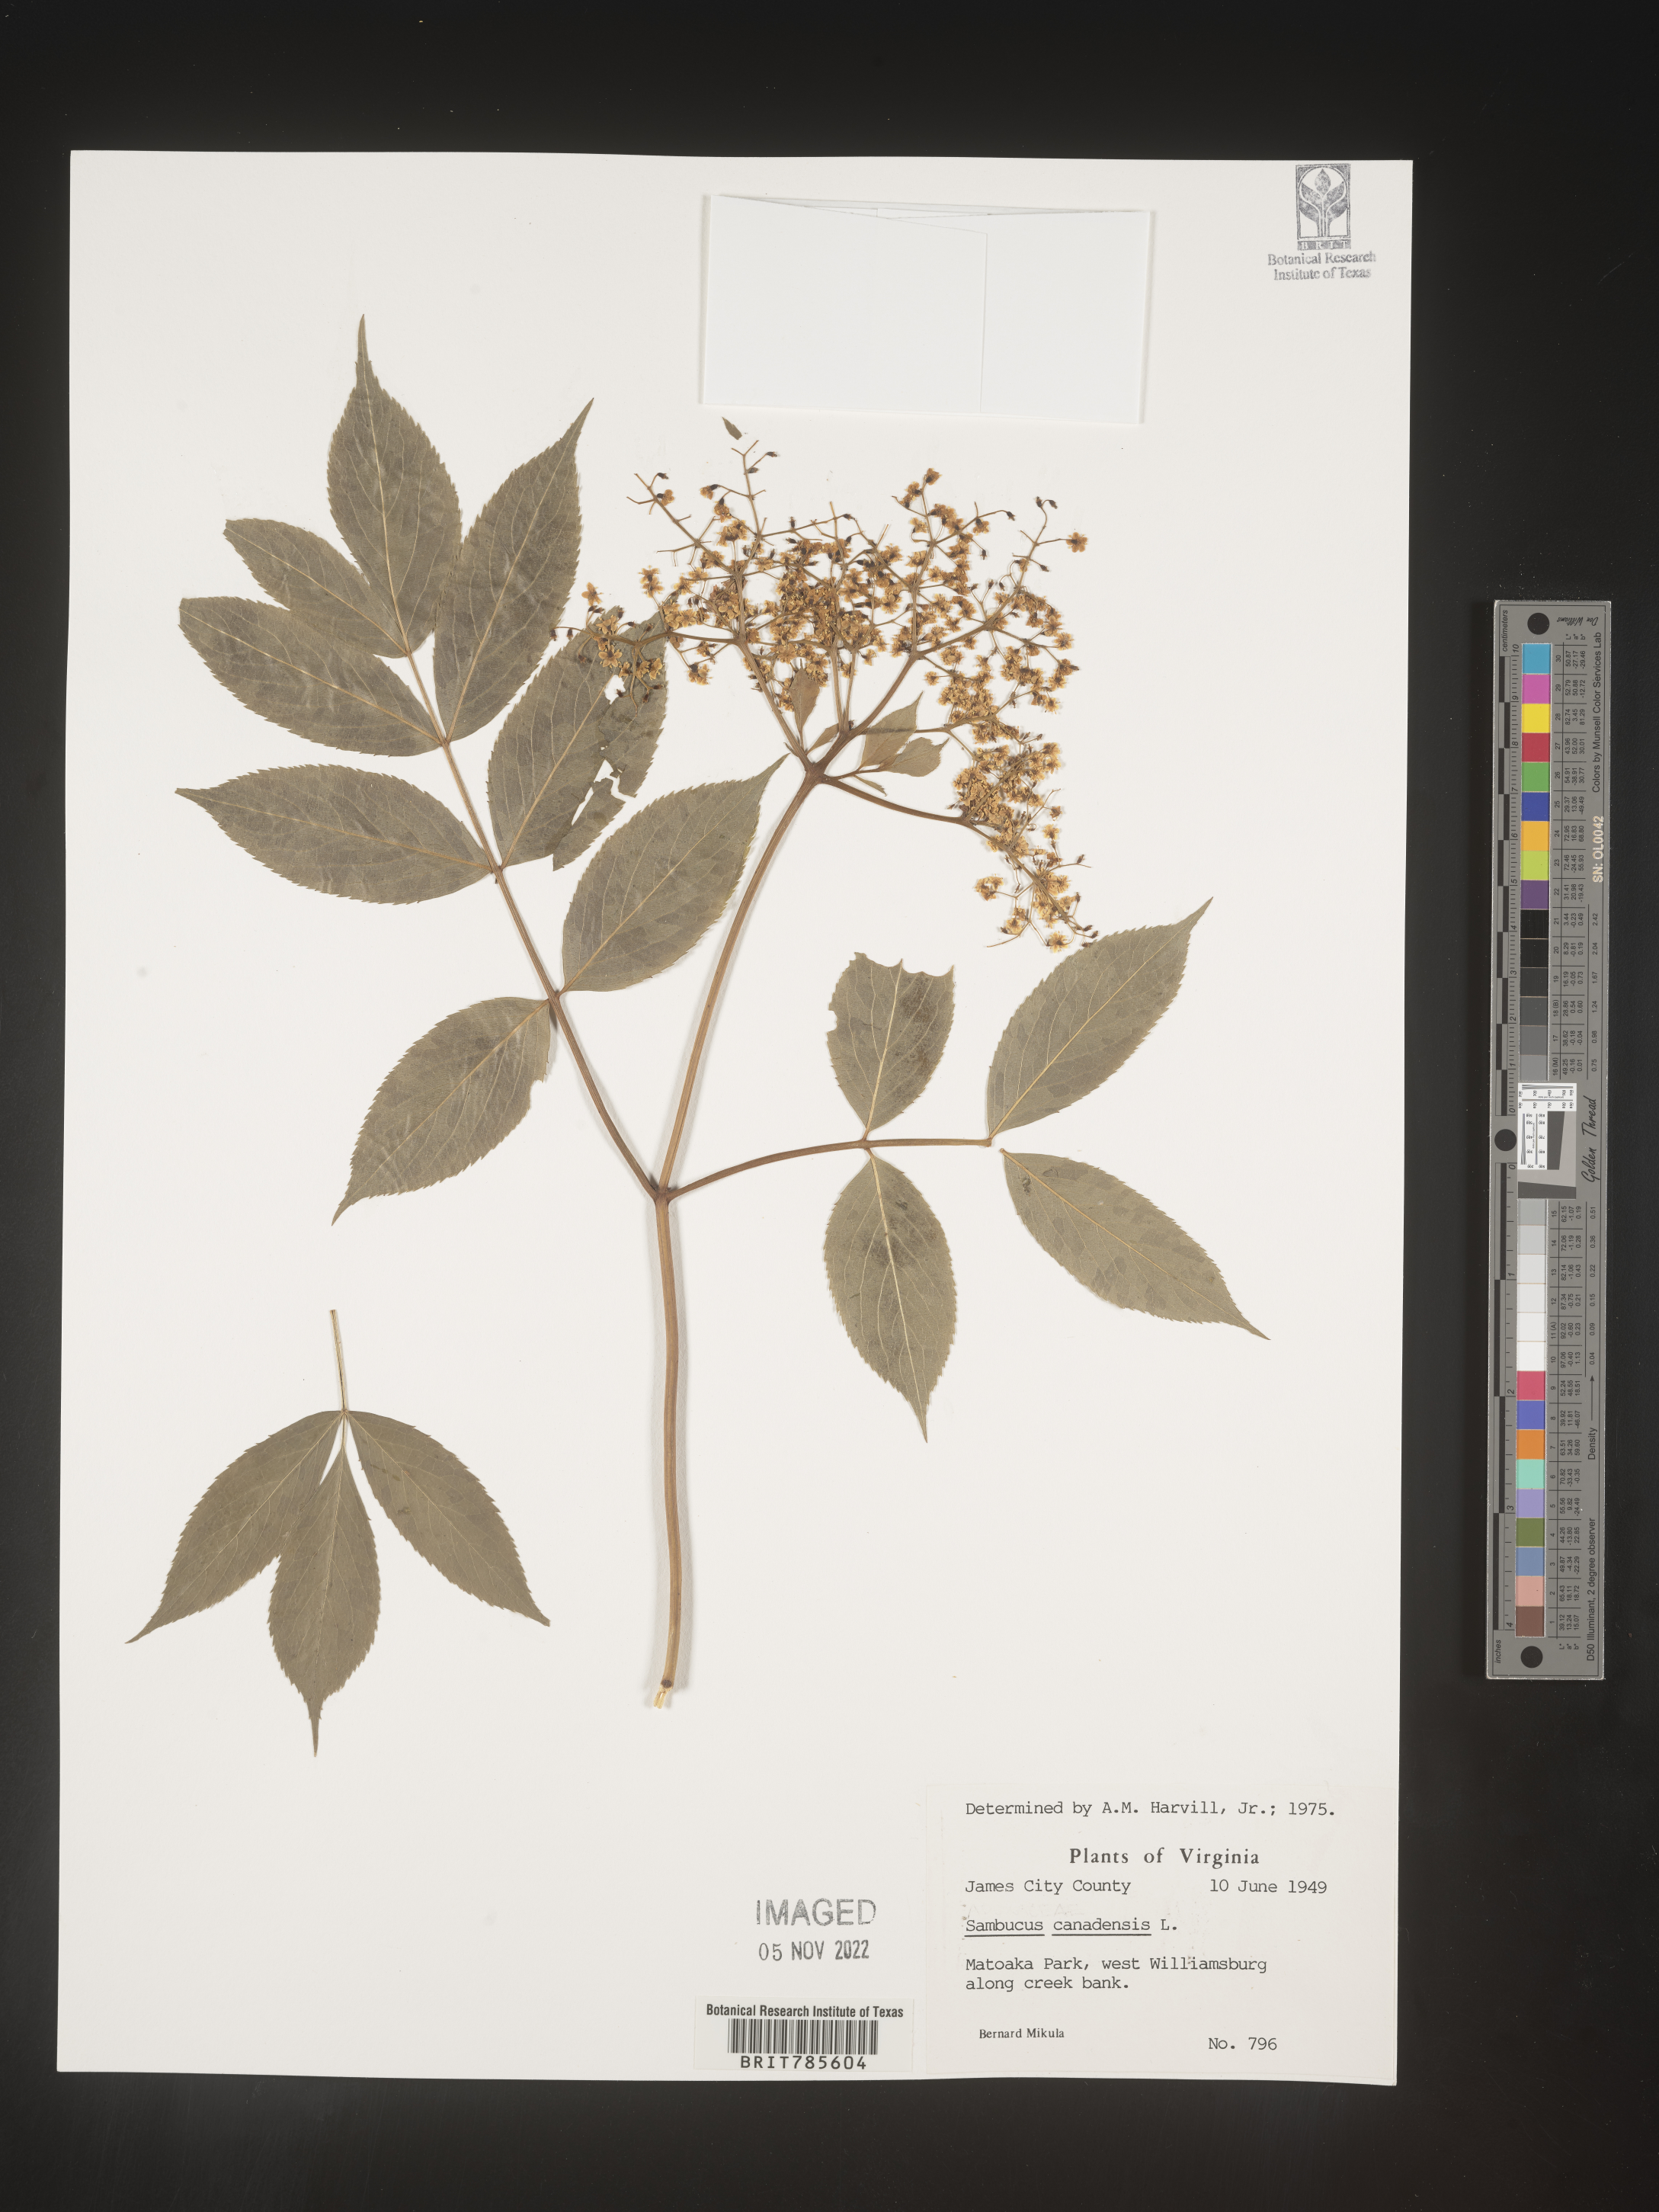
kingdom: Plantae
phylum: Tracheophyta
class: Magnoliopsida
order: Dipsacales
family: Viburnaceae
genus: Sambucus
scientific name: Sambucus canadensis
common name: American elder
